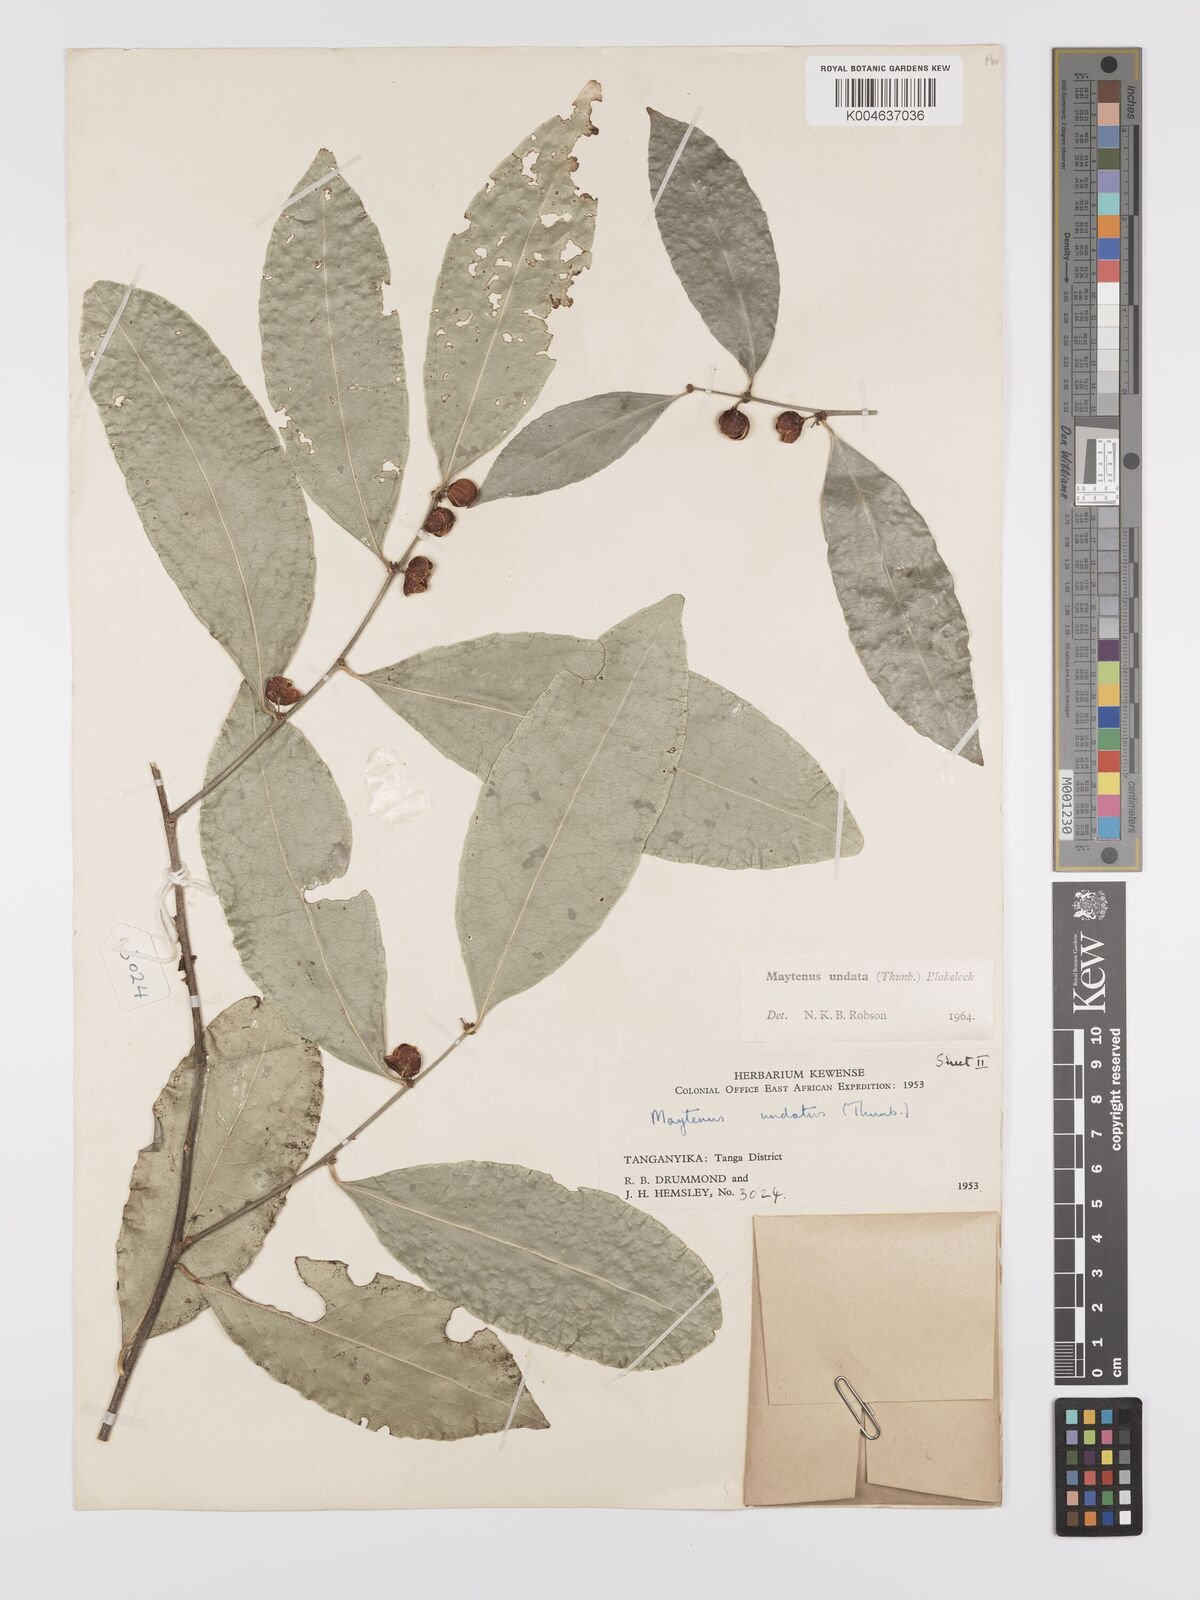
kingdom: Plantae
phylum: Tracheophyta
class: Magnoliopsida
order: Celastrales
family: Celastraceae
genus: Gymnosporia
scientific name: Gymnosporia undata
